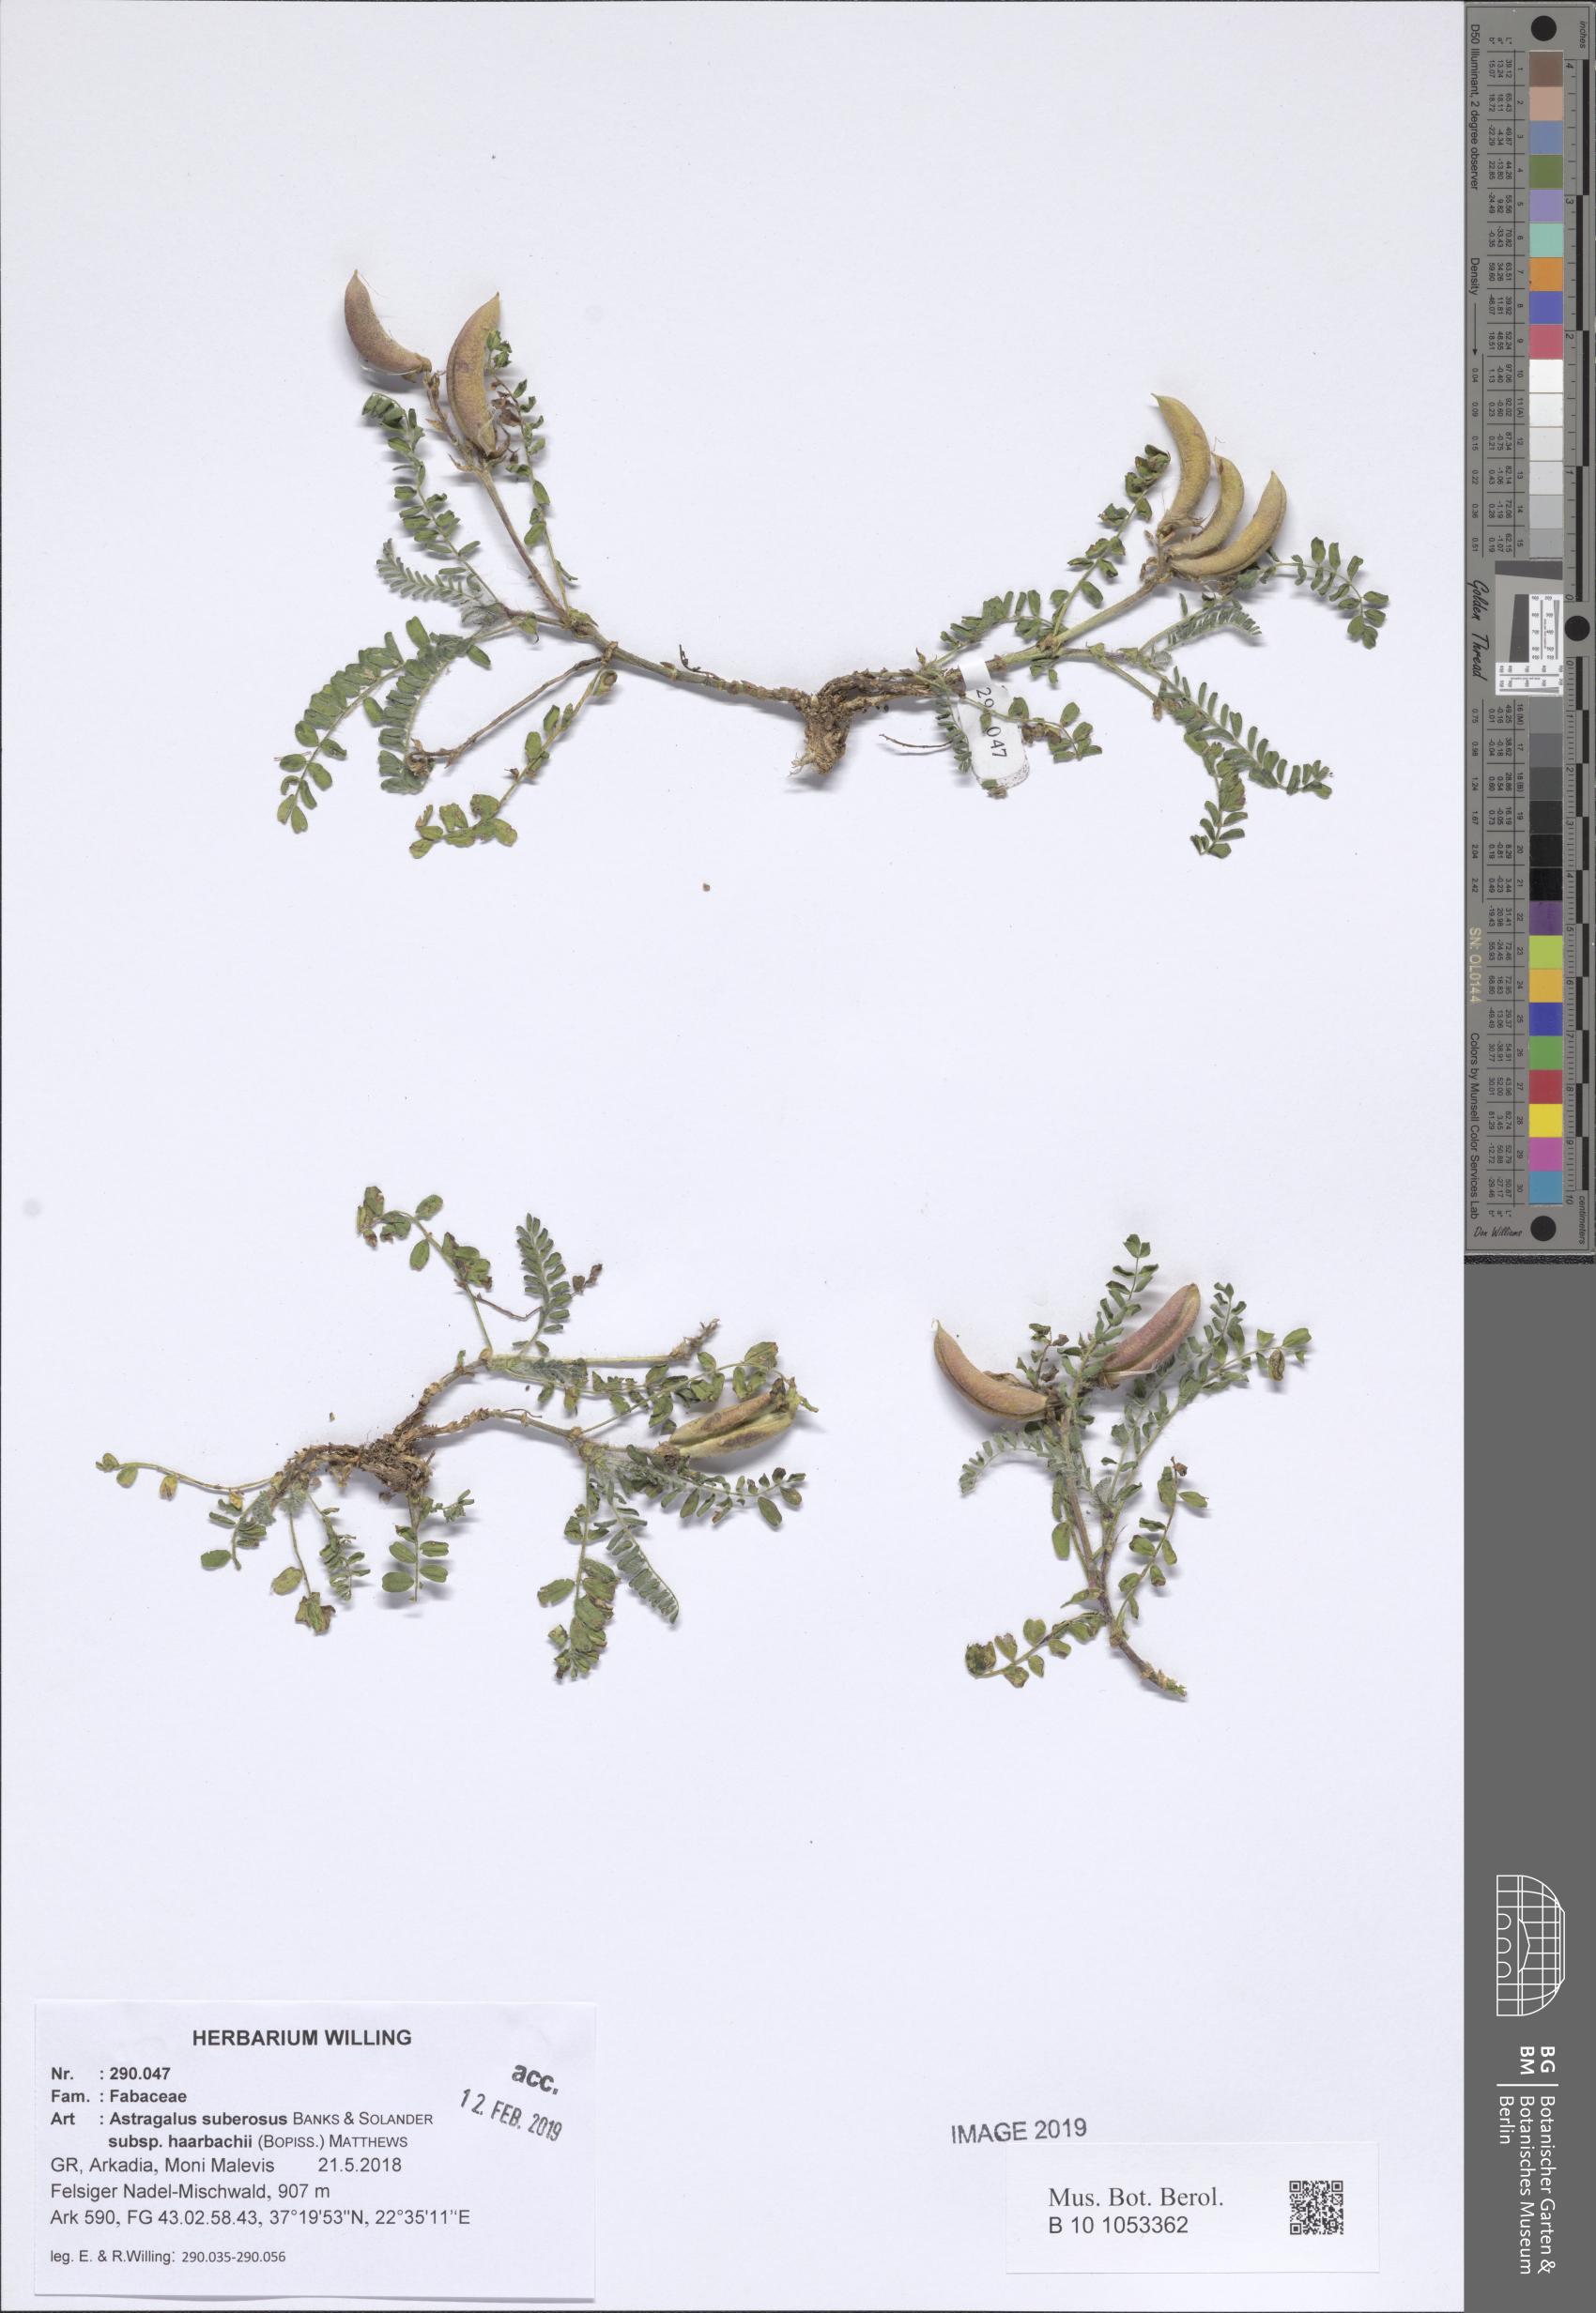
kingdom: Plantae
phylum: Tracheophyta
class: Magnoliopsida
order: Fabales
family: Fabaceae
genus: Astragalus
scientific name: Astragalus suberosus
